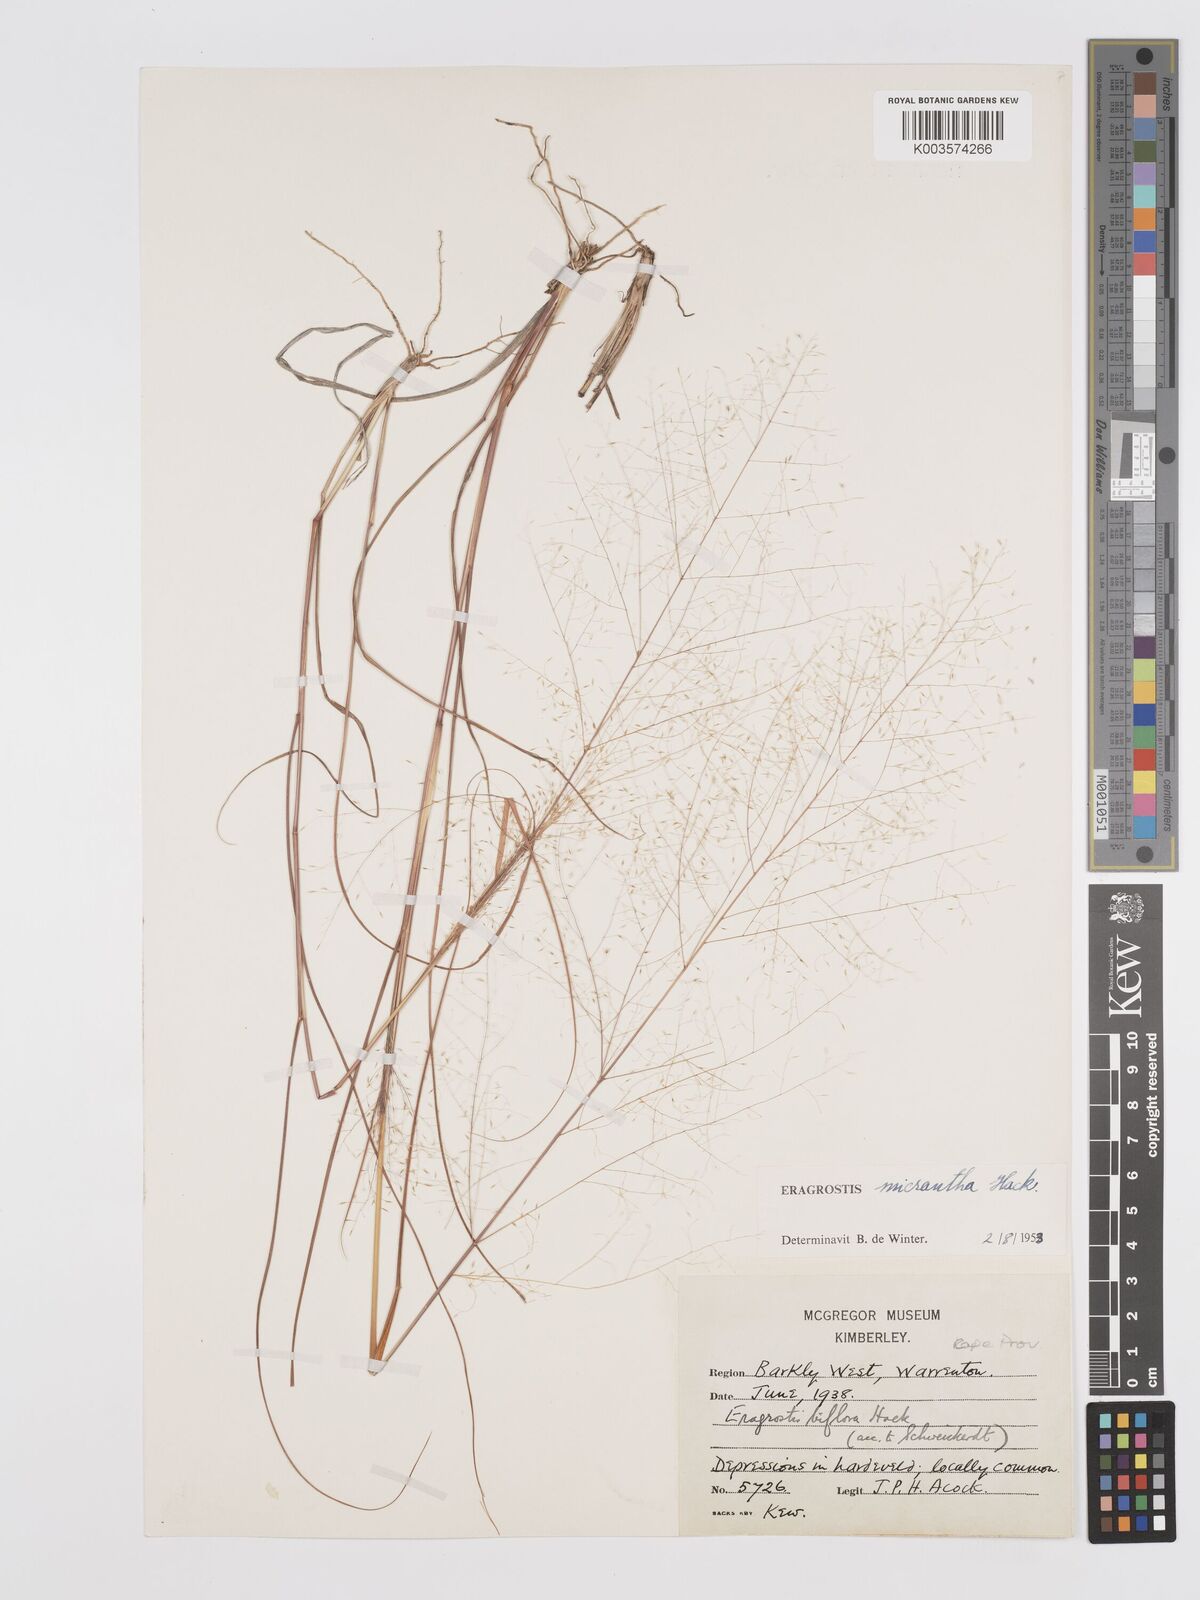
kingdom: Plantae
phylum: Tracheophyta
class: Liliopsida
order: Poales
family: Poaceae
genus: Eragrostis
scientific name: Eragrostis micrantha
